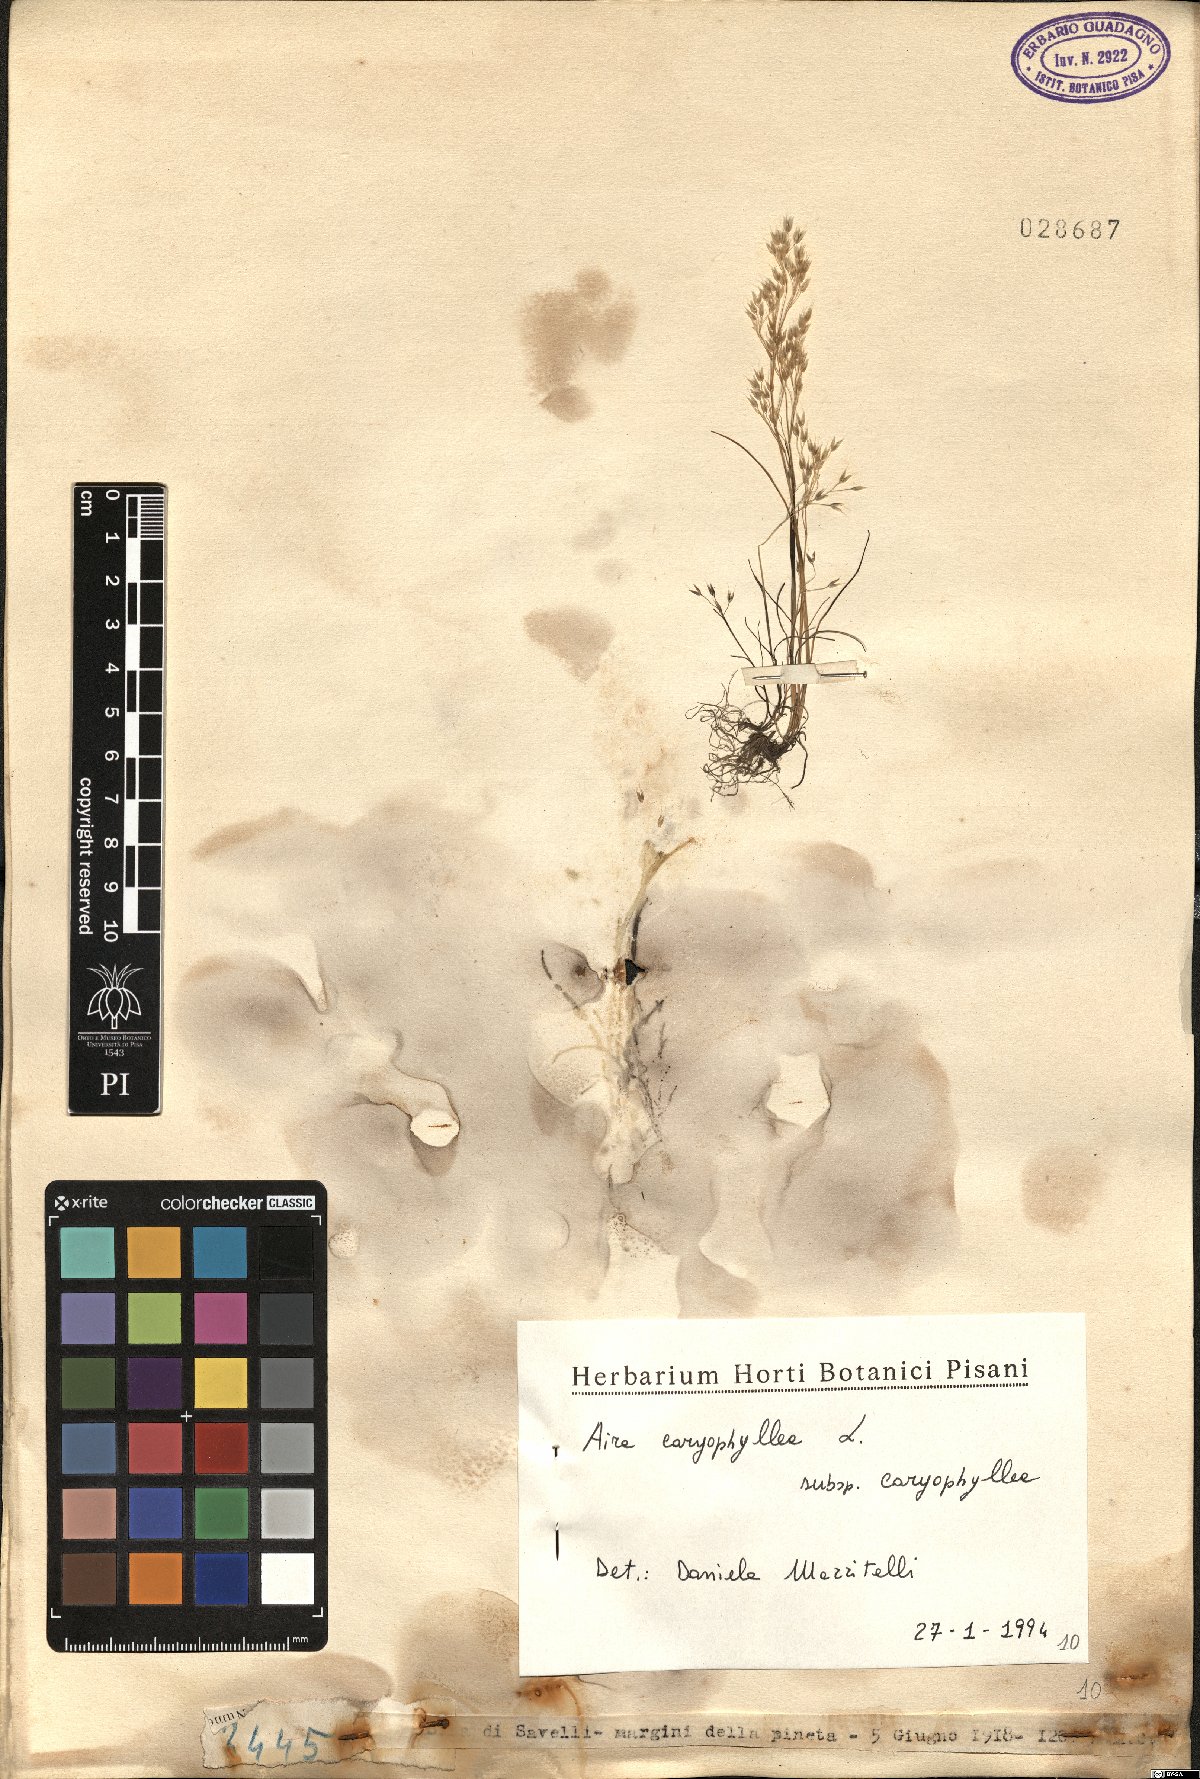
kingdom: Plantae
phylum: Tracheophyta
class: Liliopsida
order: Poales
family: Poaceae
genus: Aira
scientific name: Aira caryophyllea
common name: Silver hairgrass
